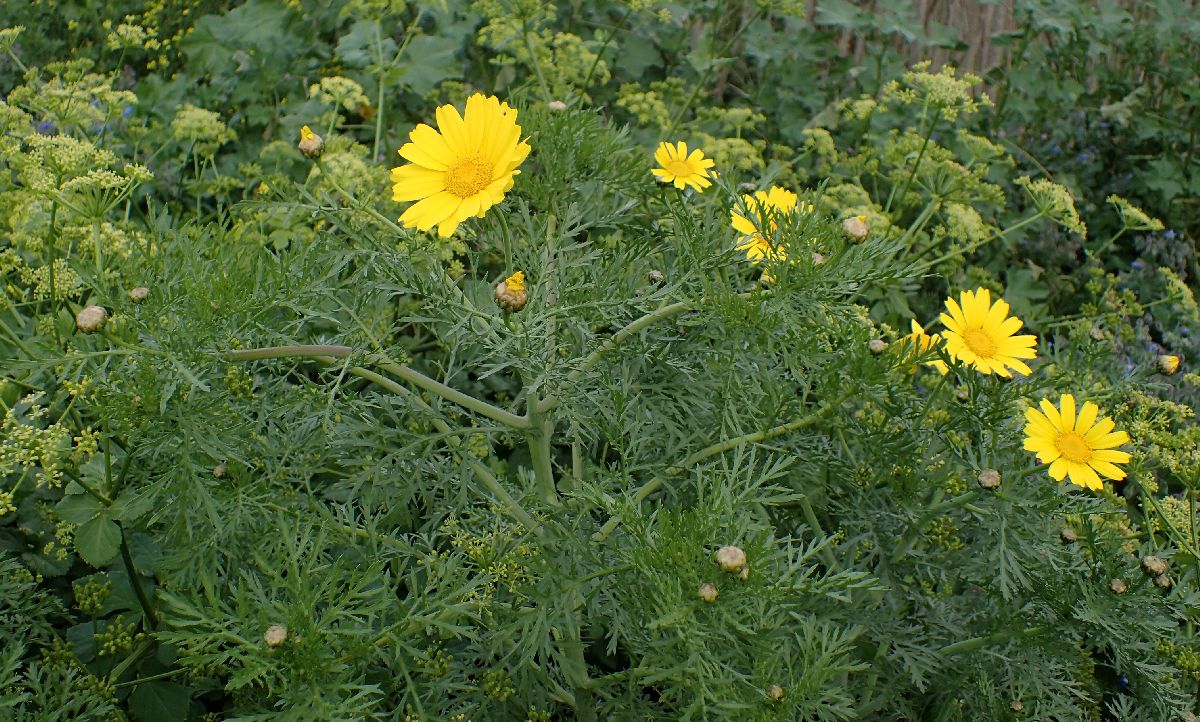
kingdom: Plantae
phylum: Tracheophyta
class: Magnoliopsida
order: Asterales
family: Asteraceae
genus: Glebionis
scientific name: Glebionis coronaria
